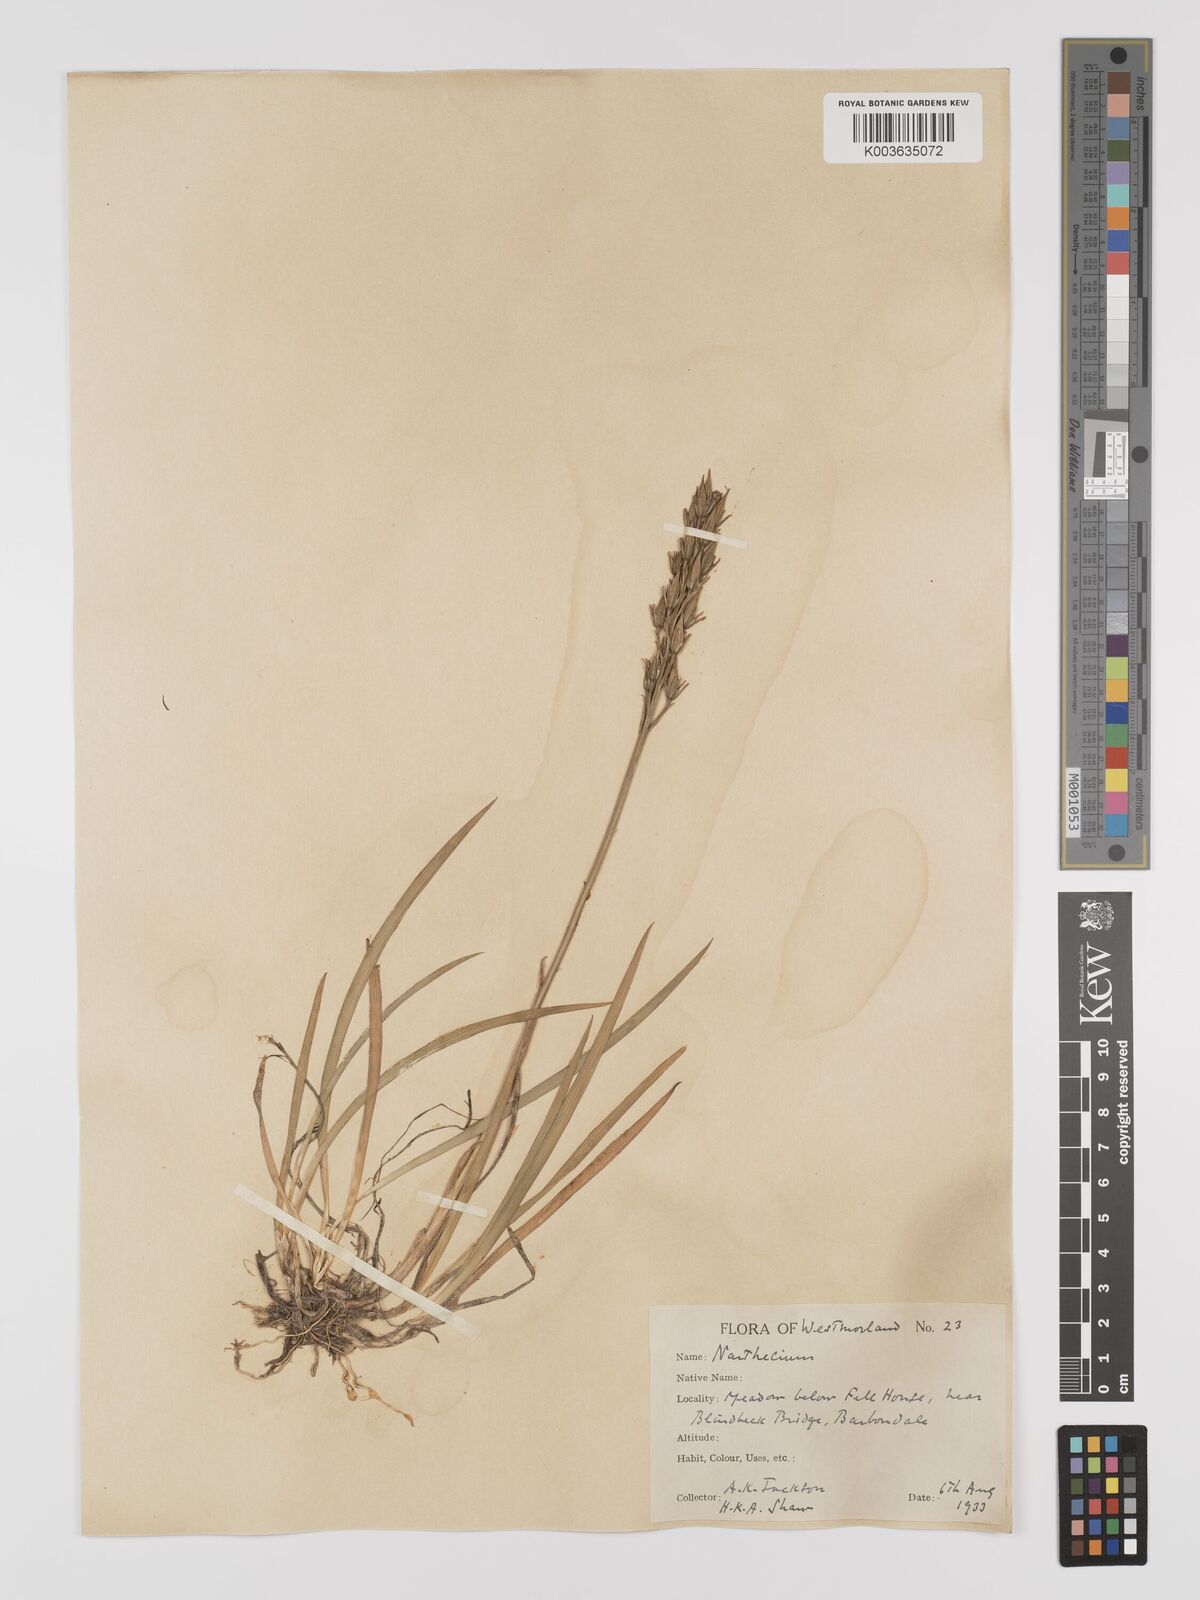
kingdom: Plantae
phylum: Tracheophyta
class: Liliopsida
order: Dioscoreales
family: Nartheciaceae
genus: Narthecium
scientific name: Narthecium
